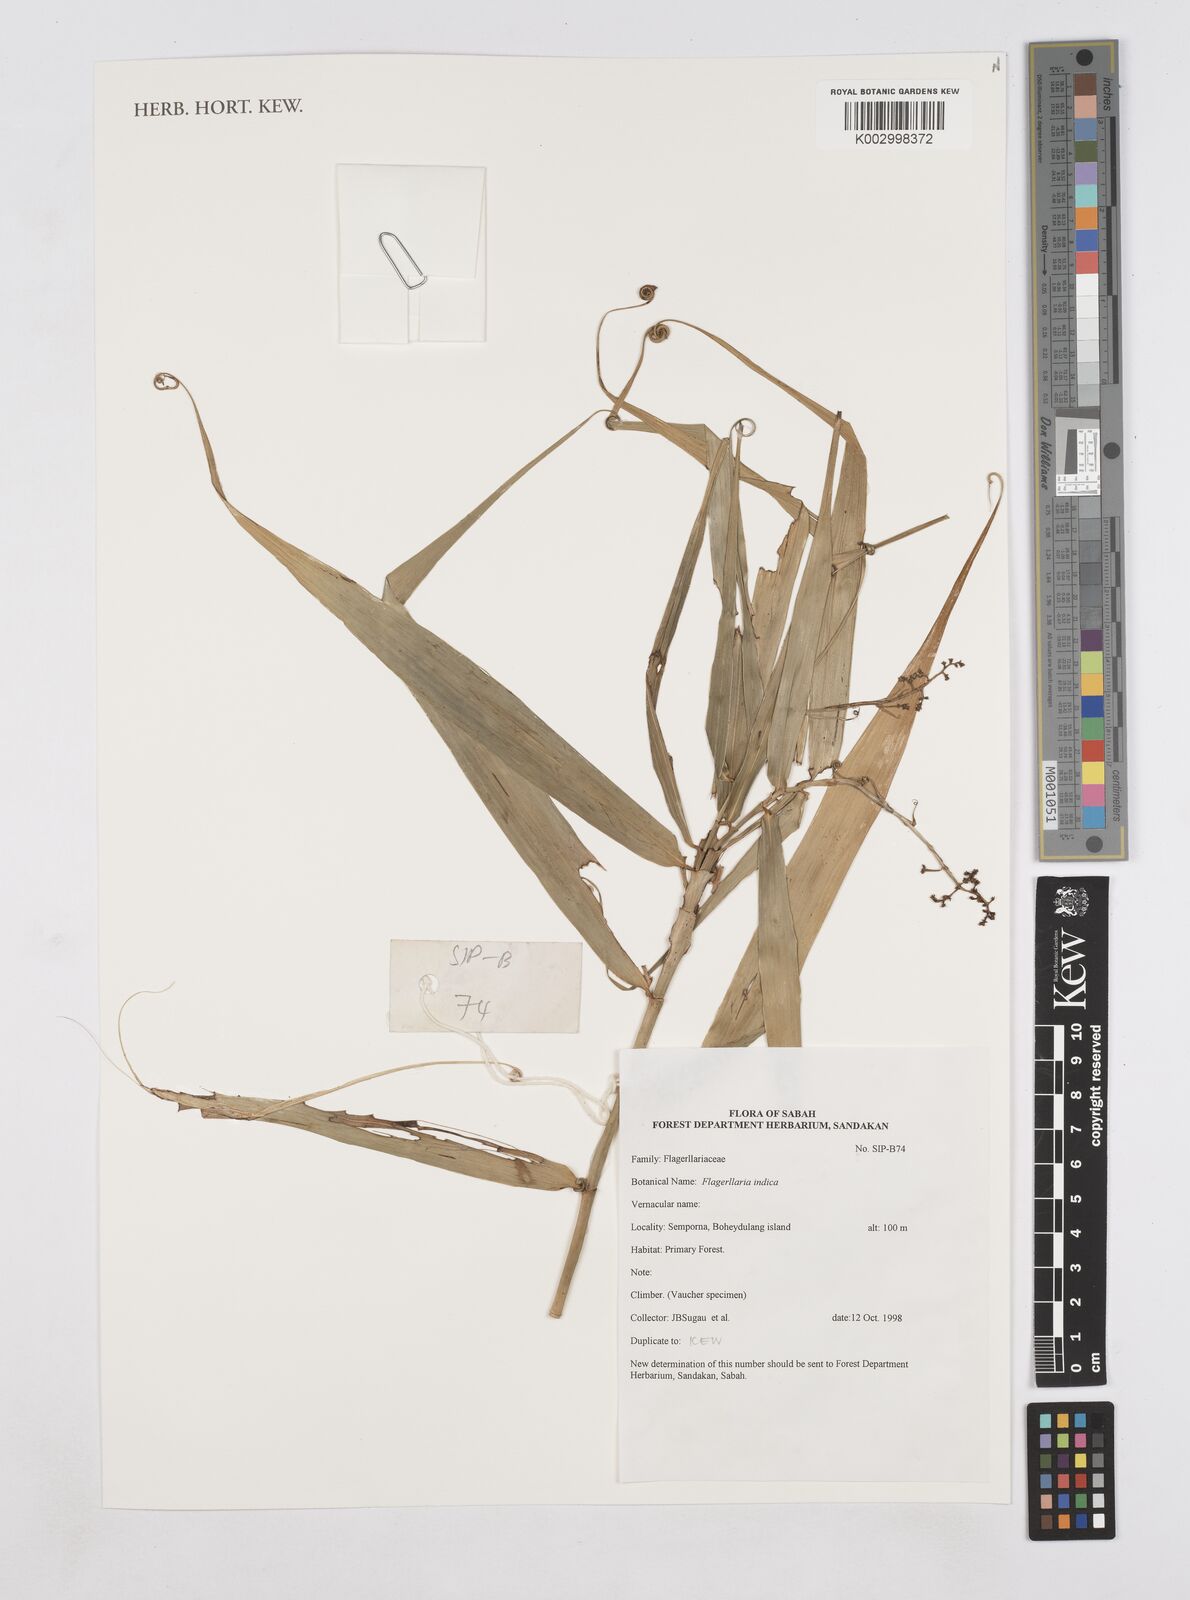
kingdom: Plantae
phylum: Tracheophyta
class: Liliopsida
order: Poales
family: Flagellariaceae
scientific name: Flagellariaceae
